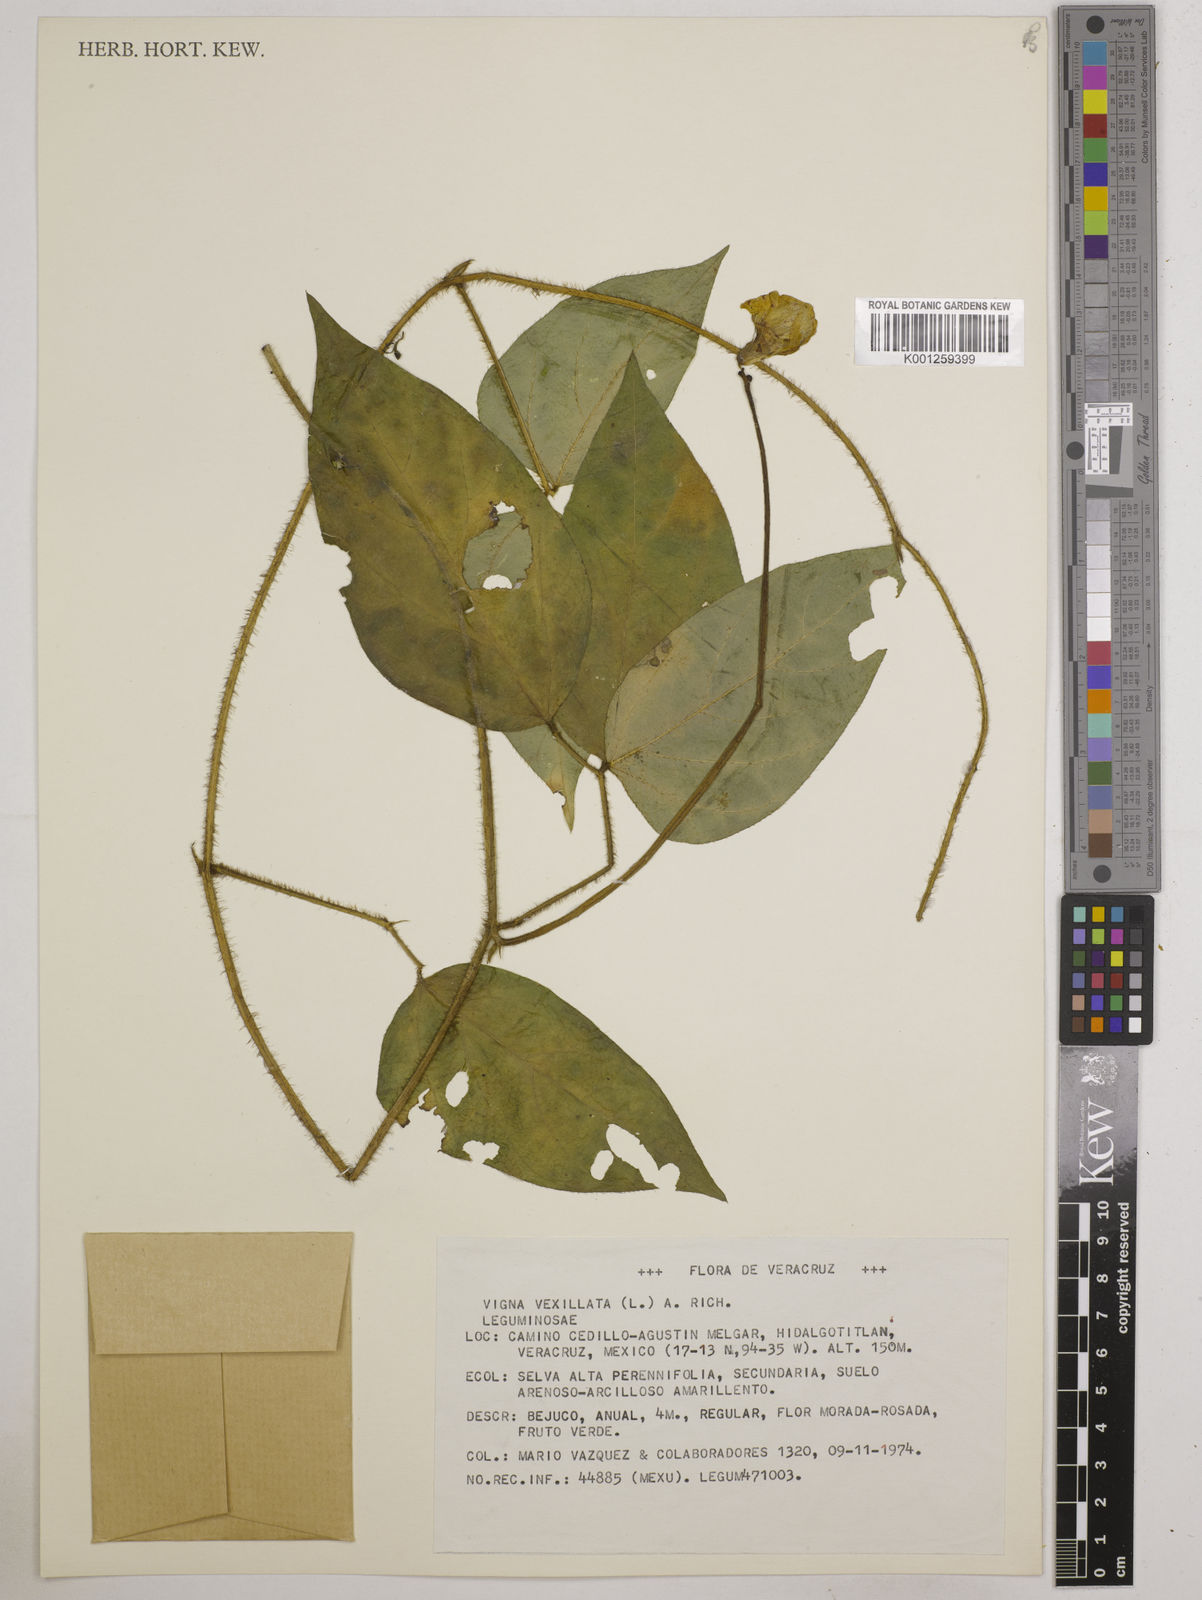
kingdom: Plantae
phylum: Tracheophyta
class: Magnoliopsida
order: Fabales
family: Fabaceae
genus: Vigna
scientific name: Vigna vexillata
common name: Zombi pea
